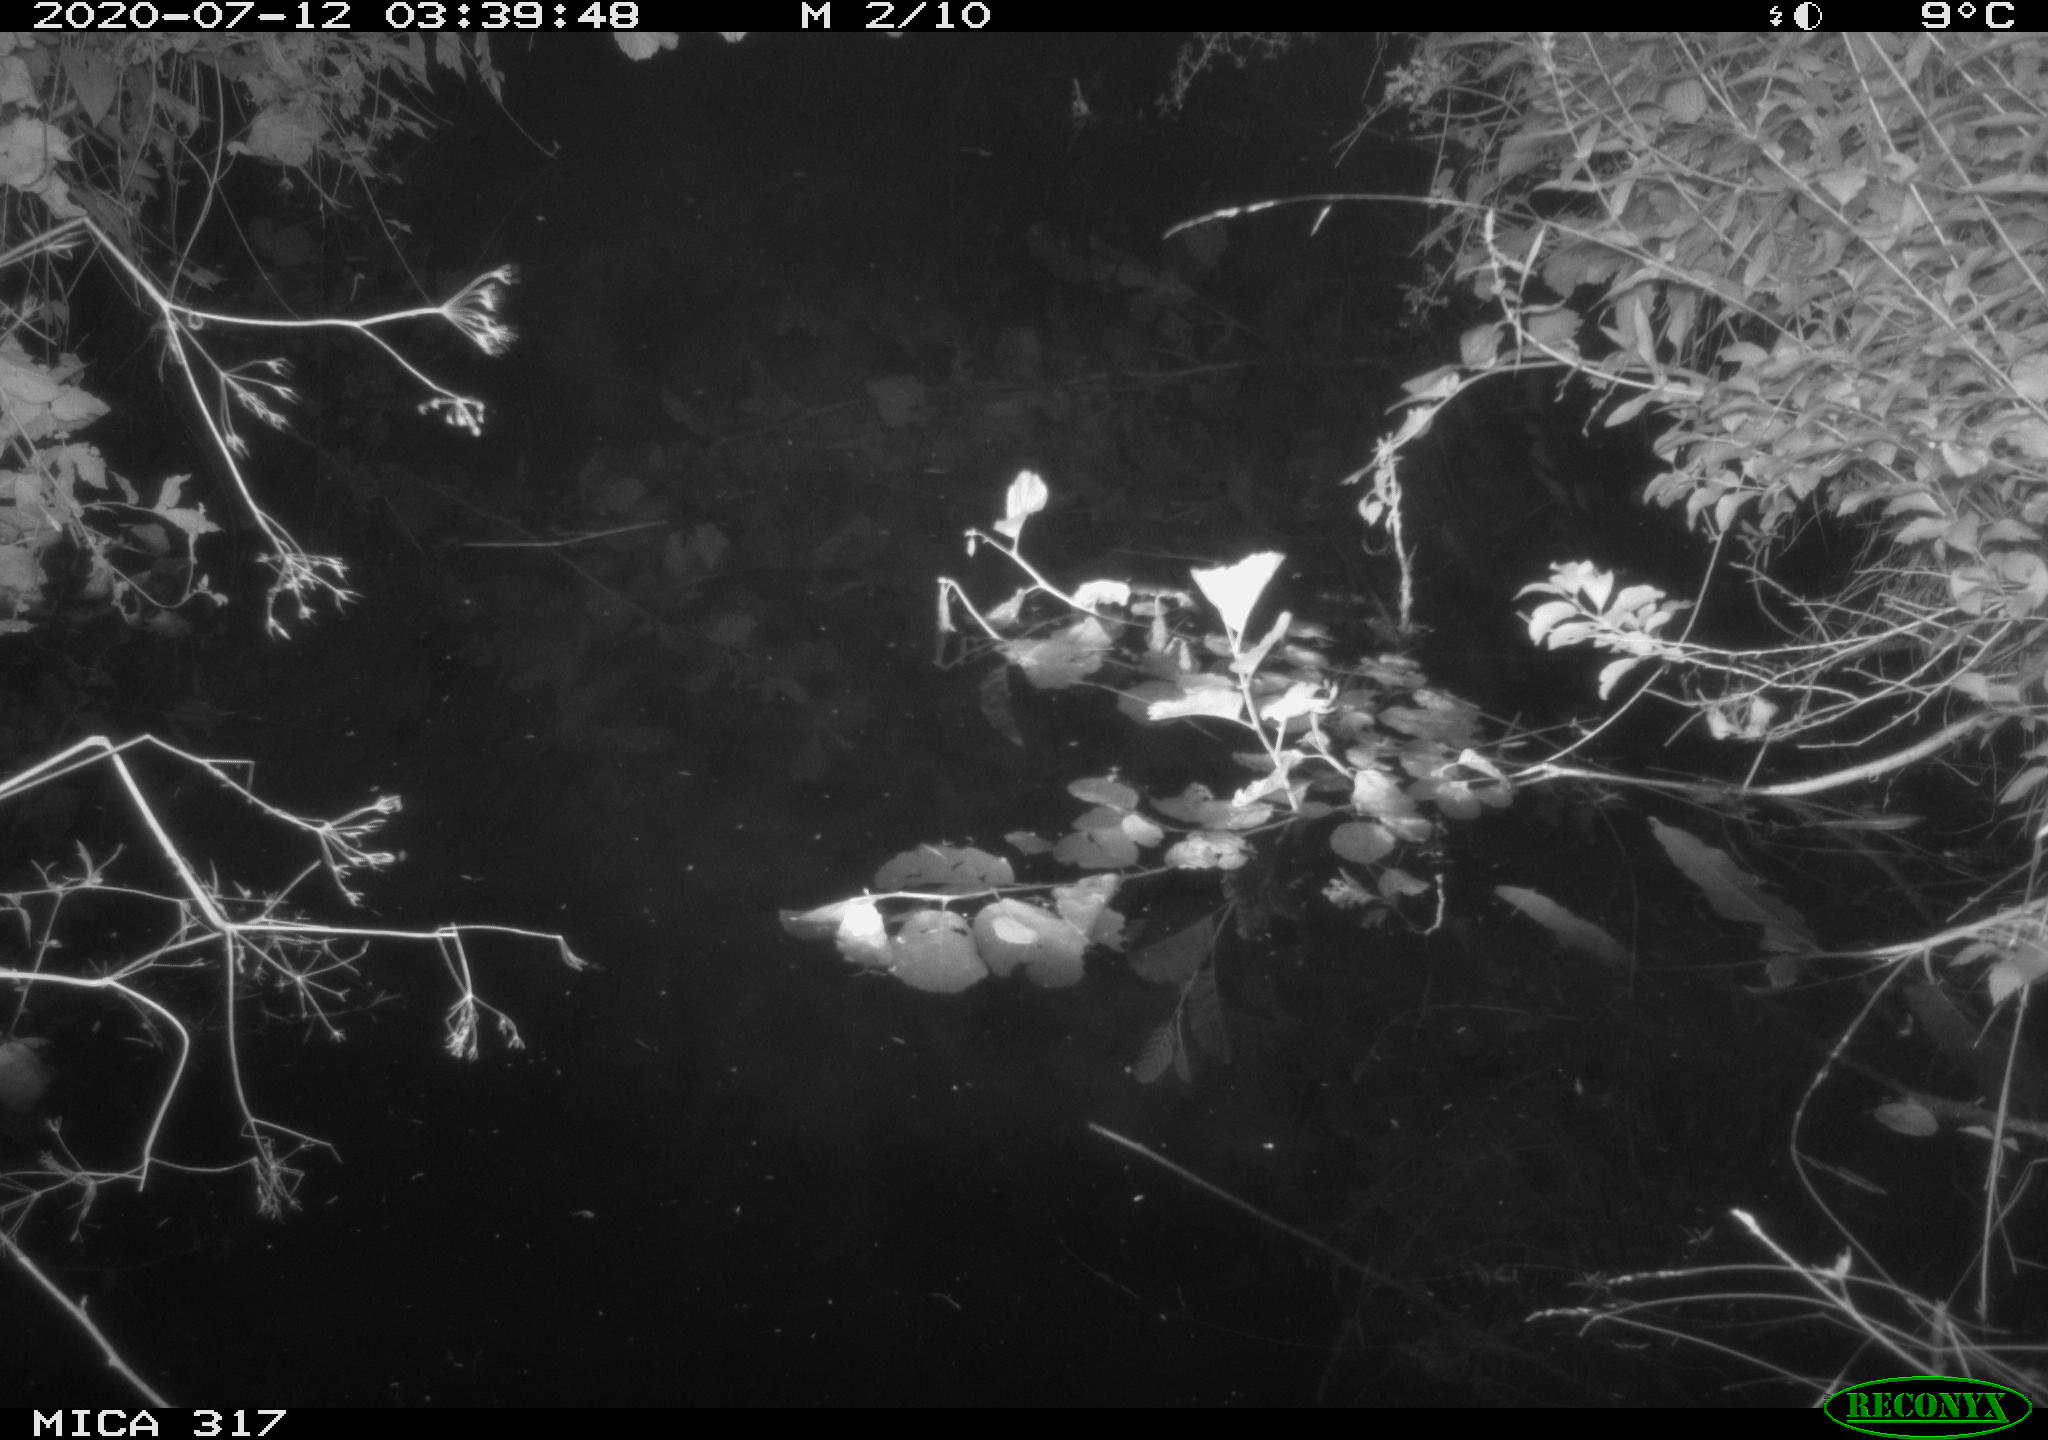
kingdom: Animalia
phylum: Chordata
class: Aves
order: Anseriformes
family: Anatidae
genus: Anas
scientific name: Anas platyrhynchos
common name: Mallard
